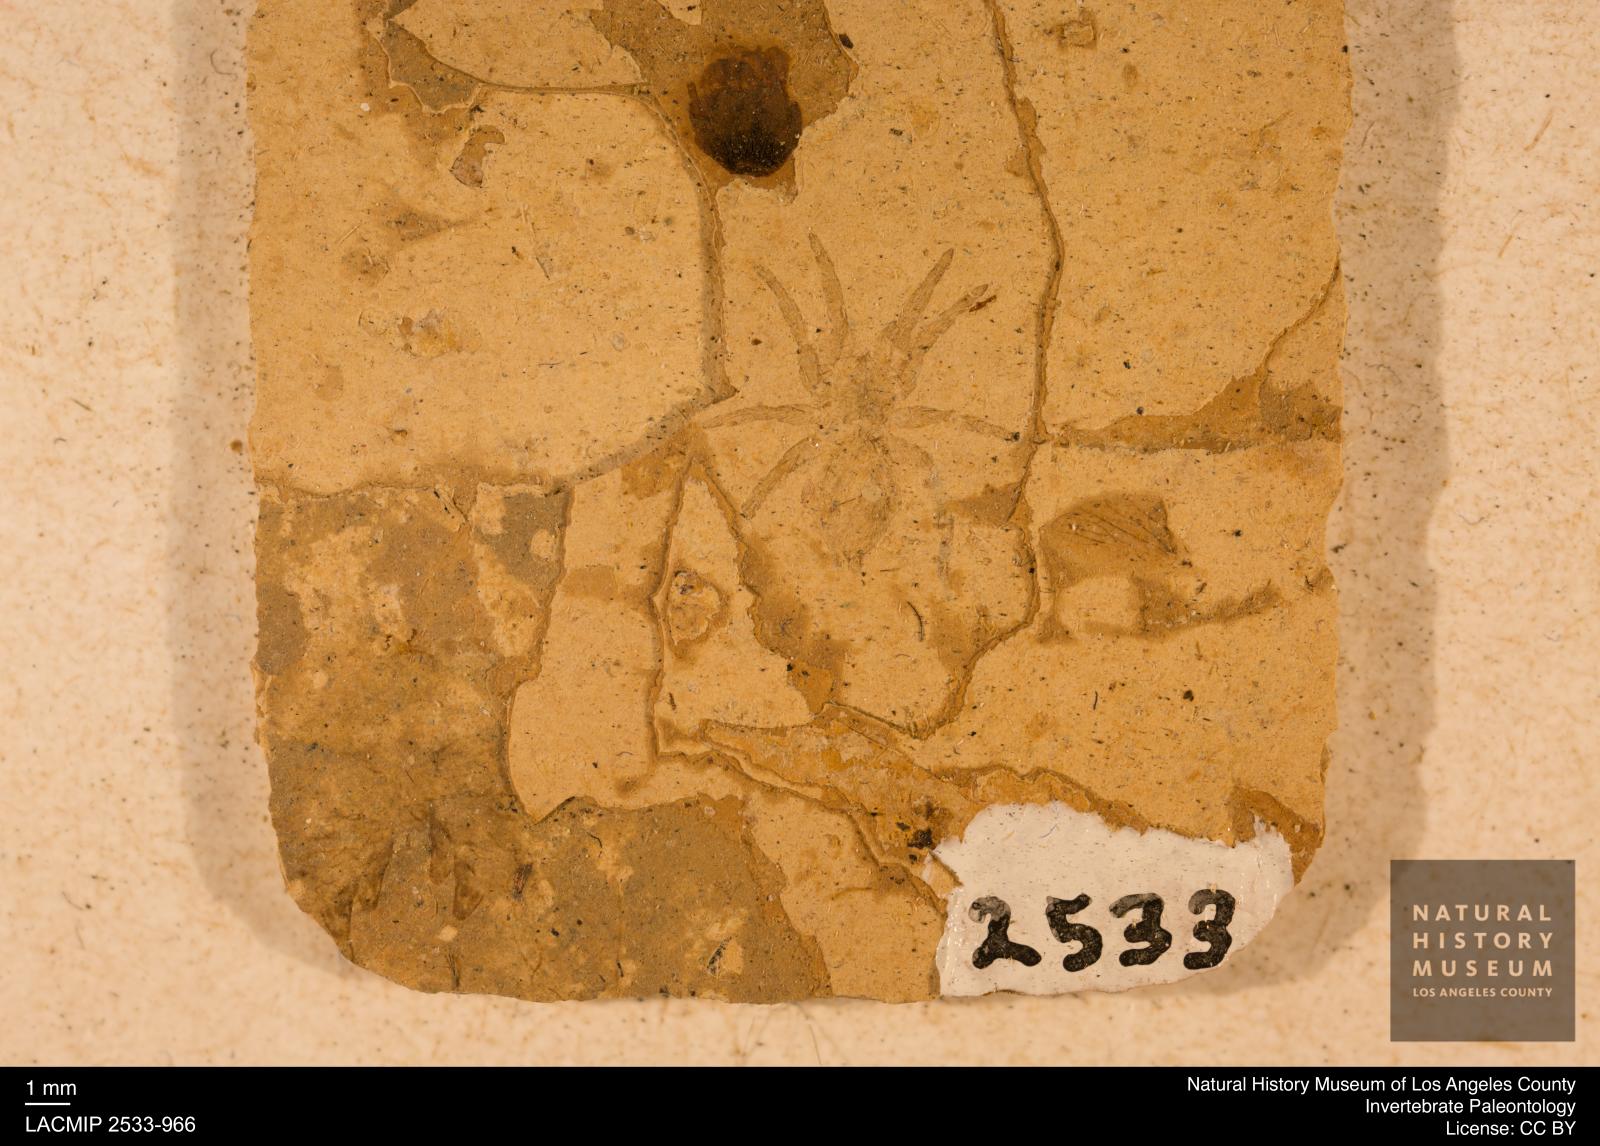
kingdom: Animalia
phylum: Arthropoda
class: Arachnida
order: Araneae
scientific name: Araneae
